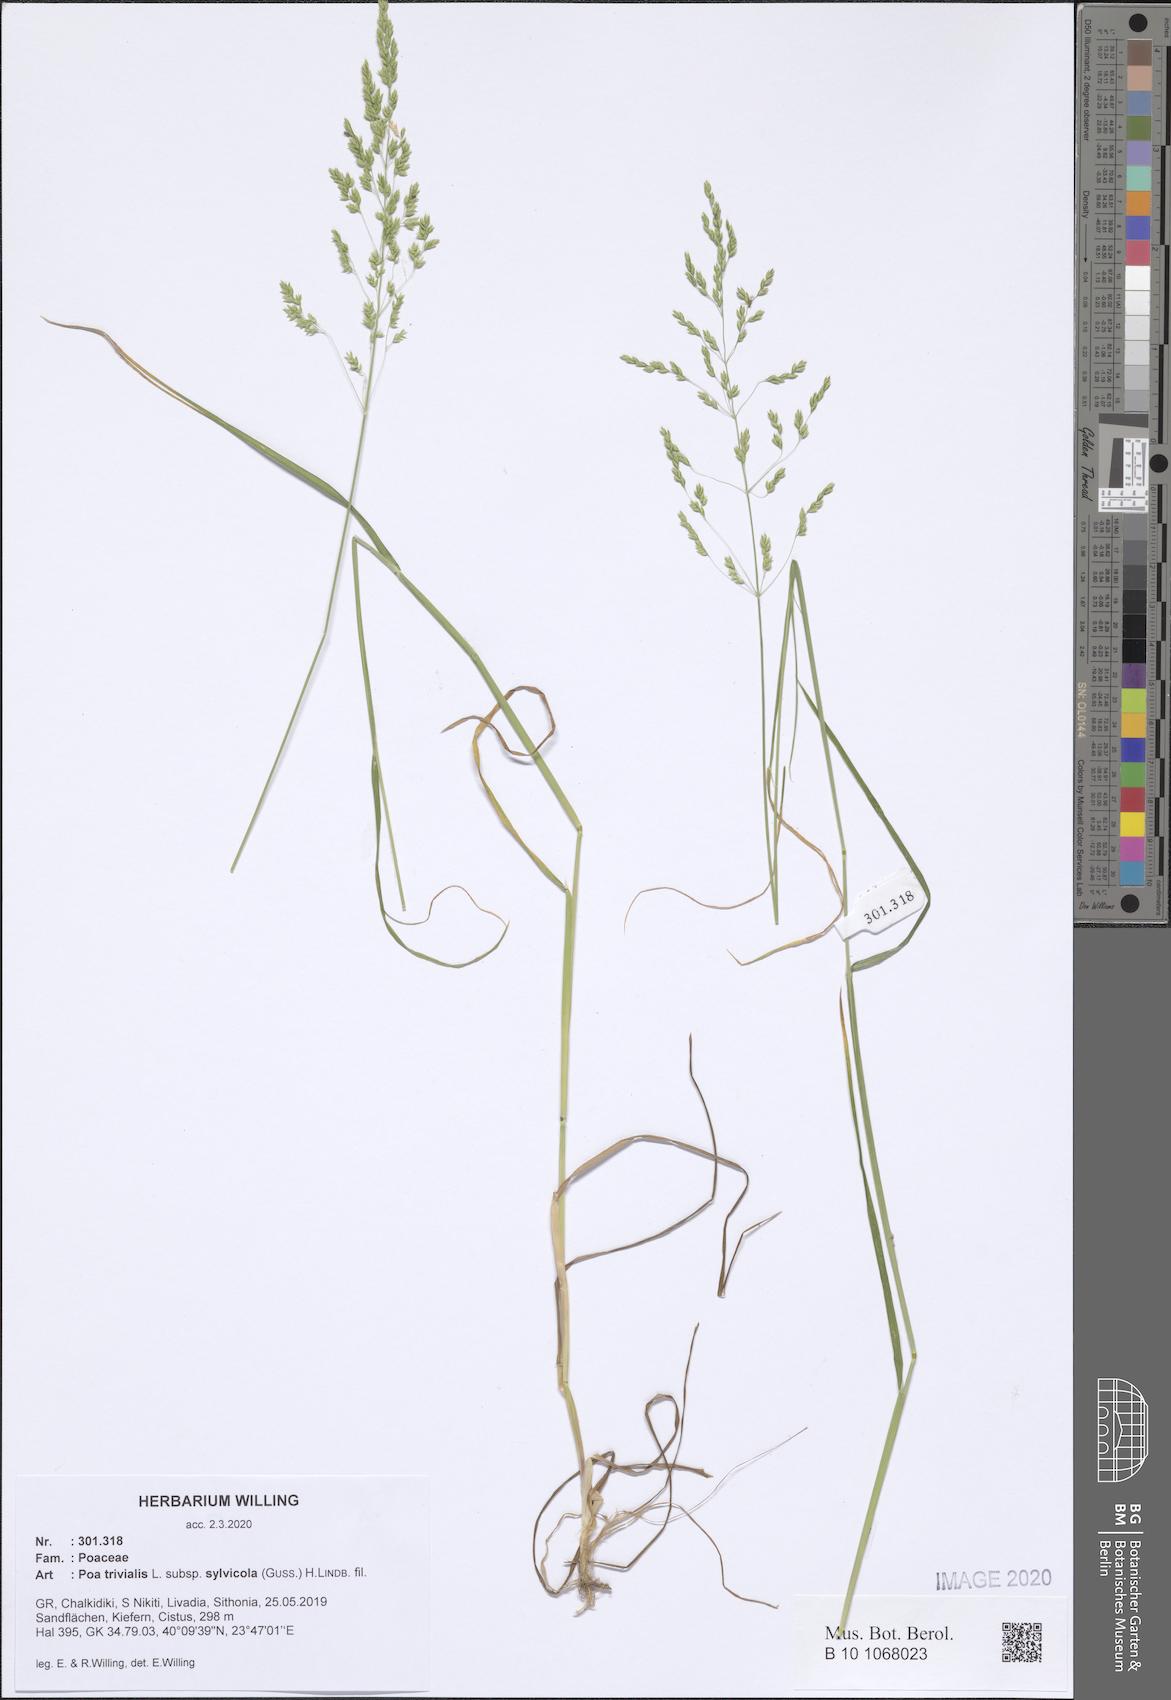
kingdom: Plantae
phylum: Tracheophyta
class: Liliopsida
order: Poales
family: Poaceae
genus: Poa
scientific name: Poa trivialis
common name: Rough bluegrass
